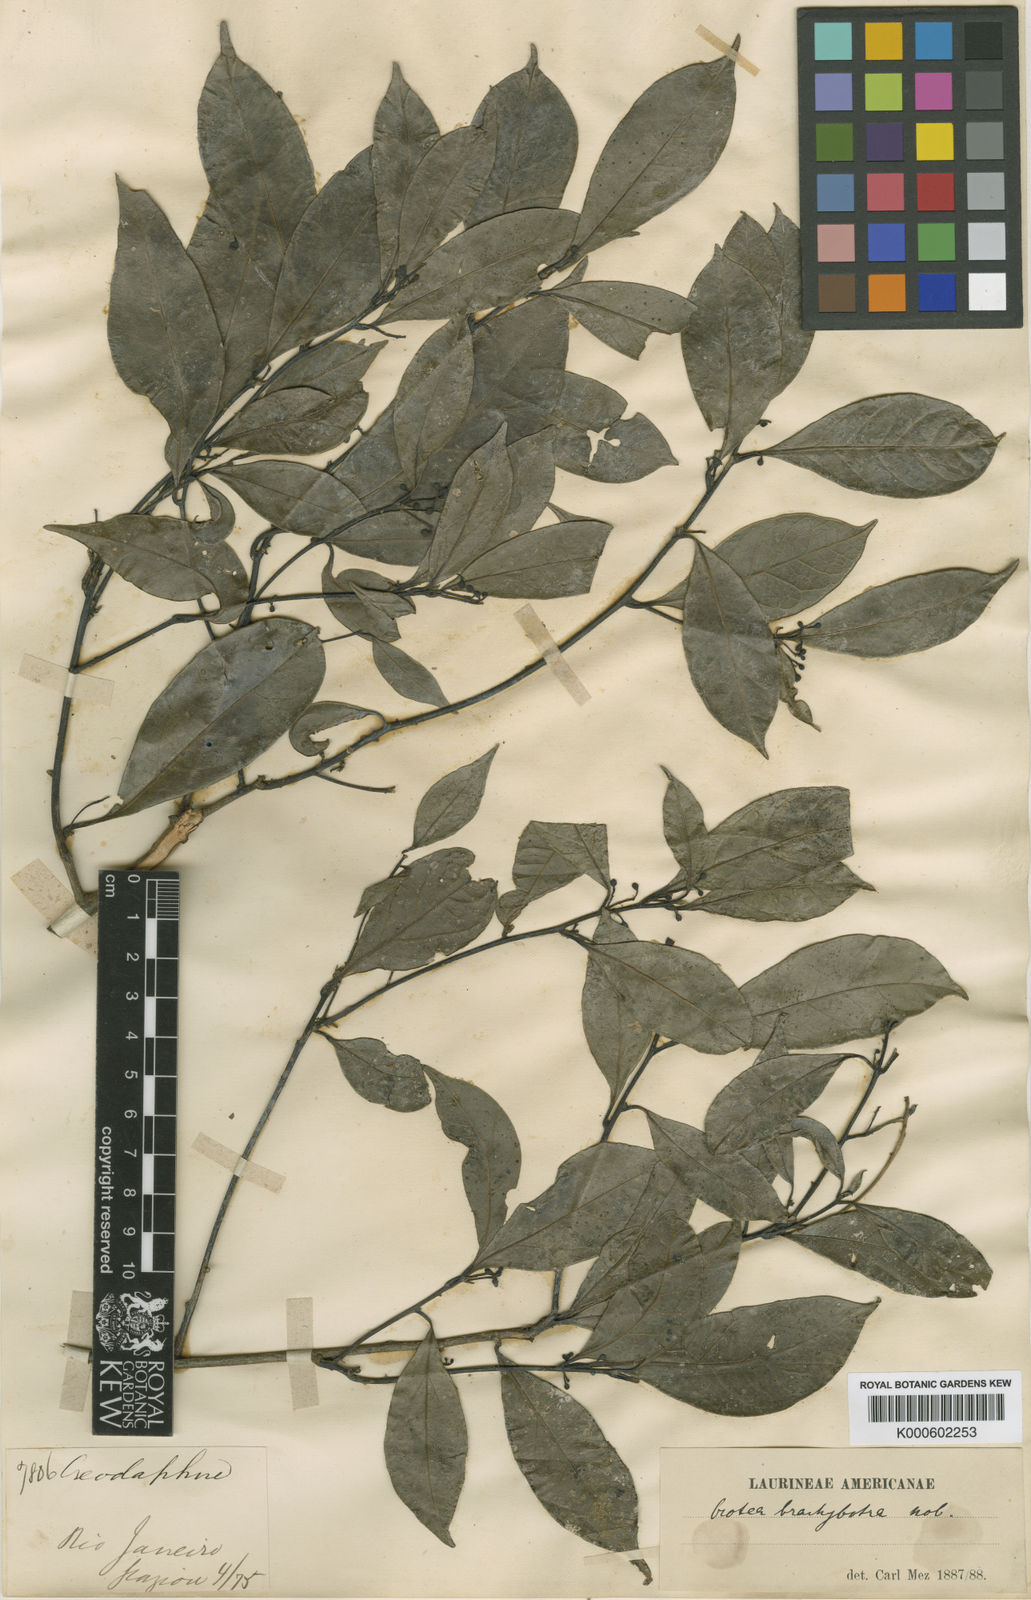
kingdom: Plantae
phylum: Tracheophyta
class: Magnoliopsida
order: Laurales
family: Lauraceae
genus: Ocotea
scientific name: Ocotea camphoromoea
